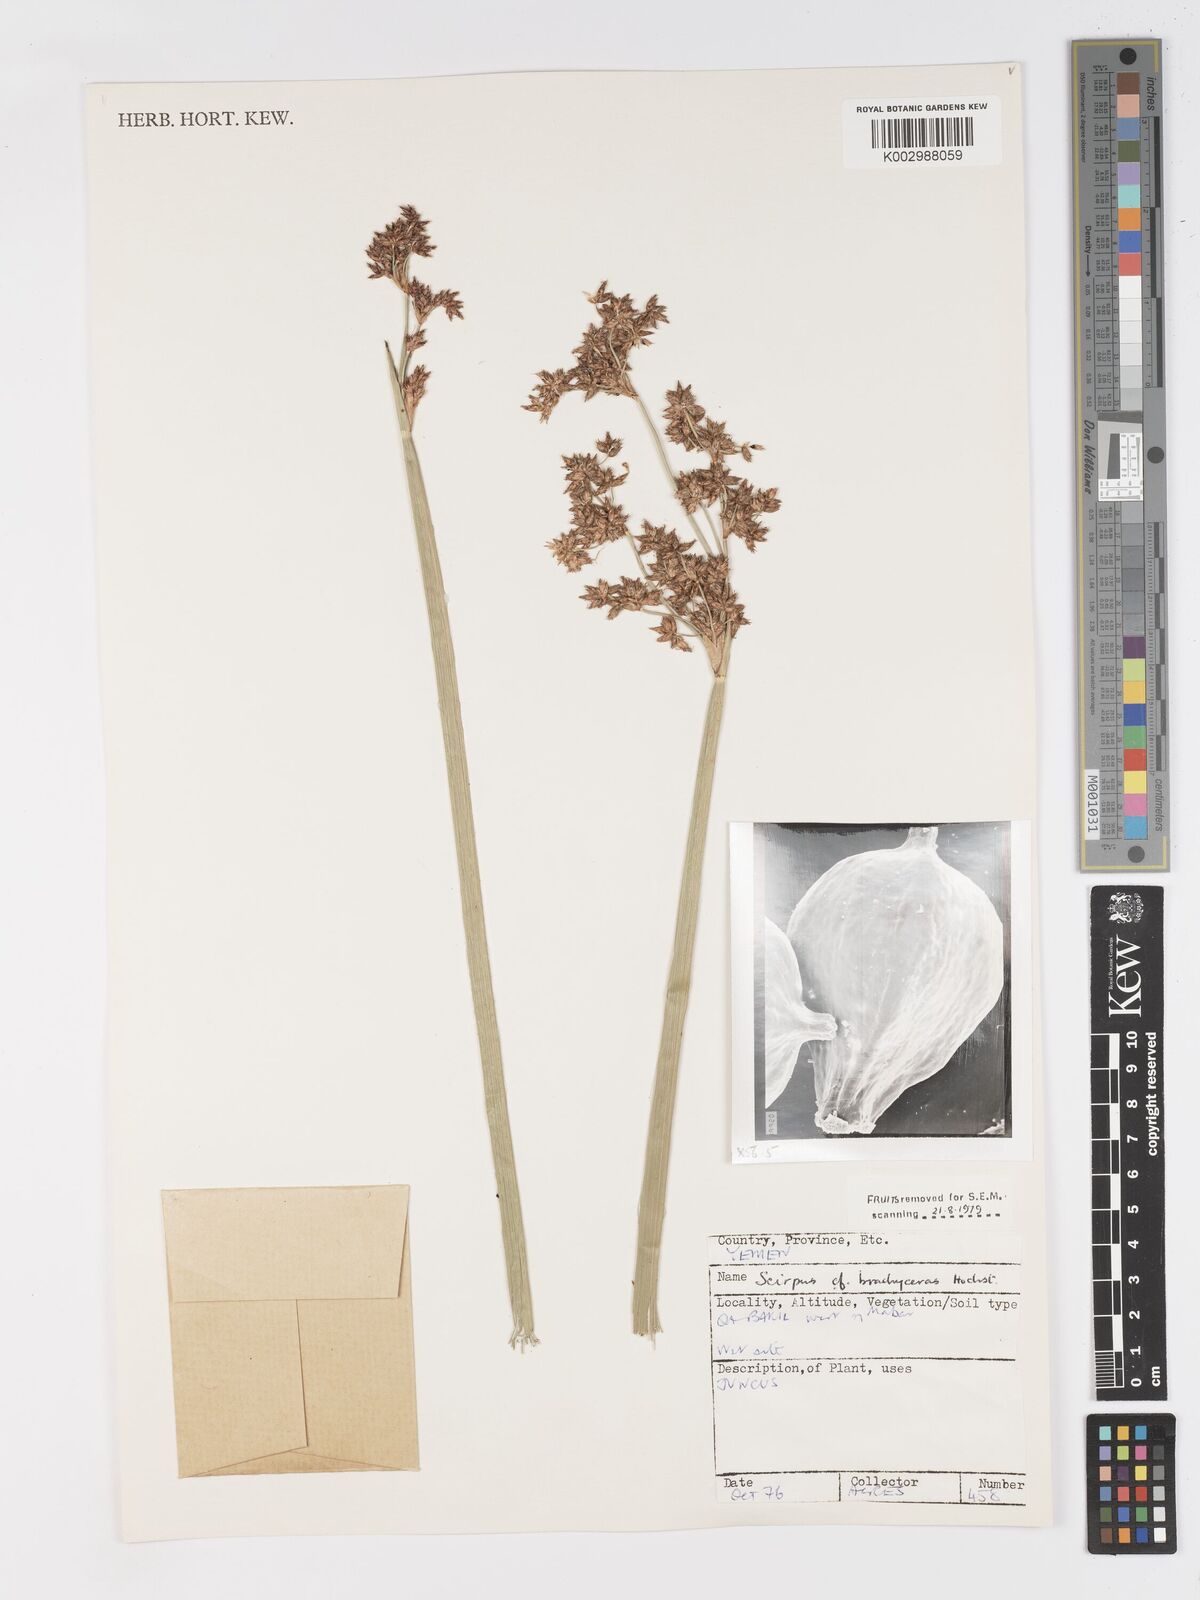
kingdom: Plantae
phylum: Tracheophyta
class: Liliopsida
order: Poales
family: Cyperaceae
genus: Schoenoplectiella
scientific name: Schoenoplectiella brachyceras
